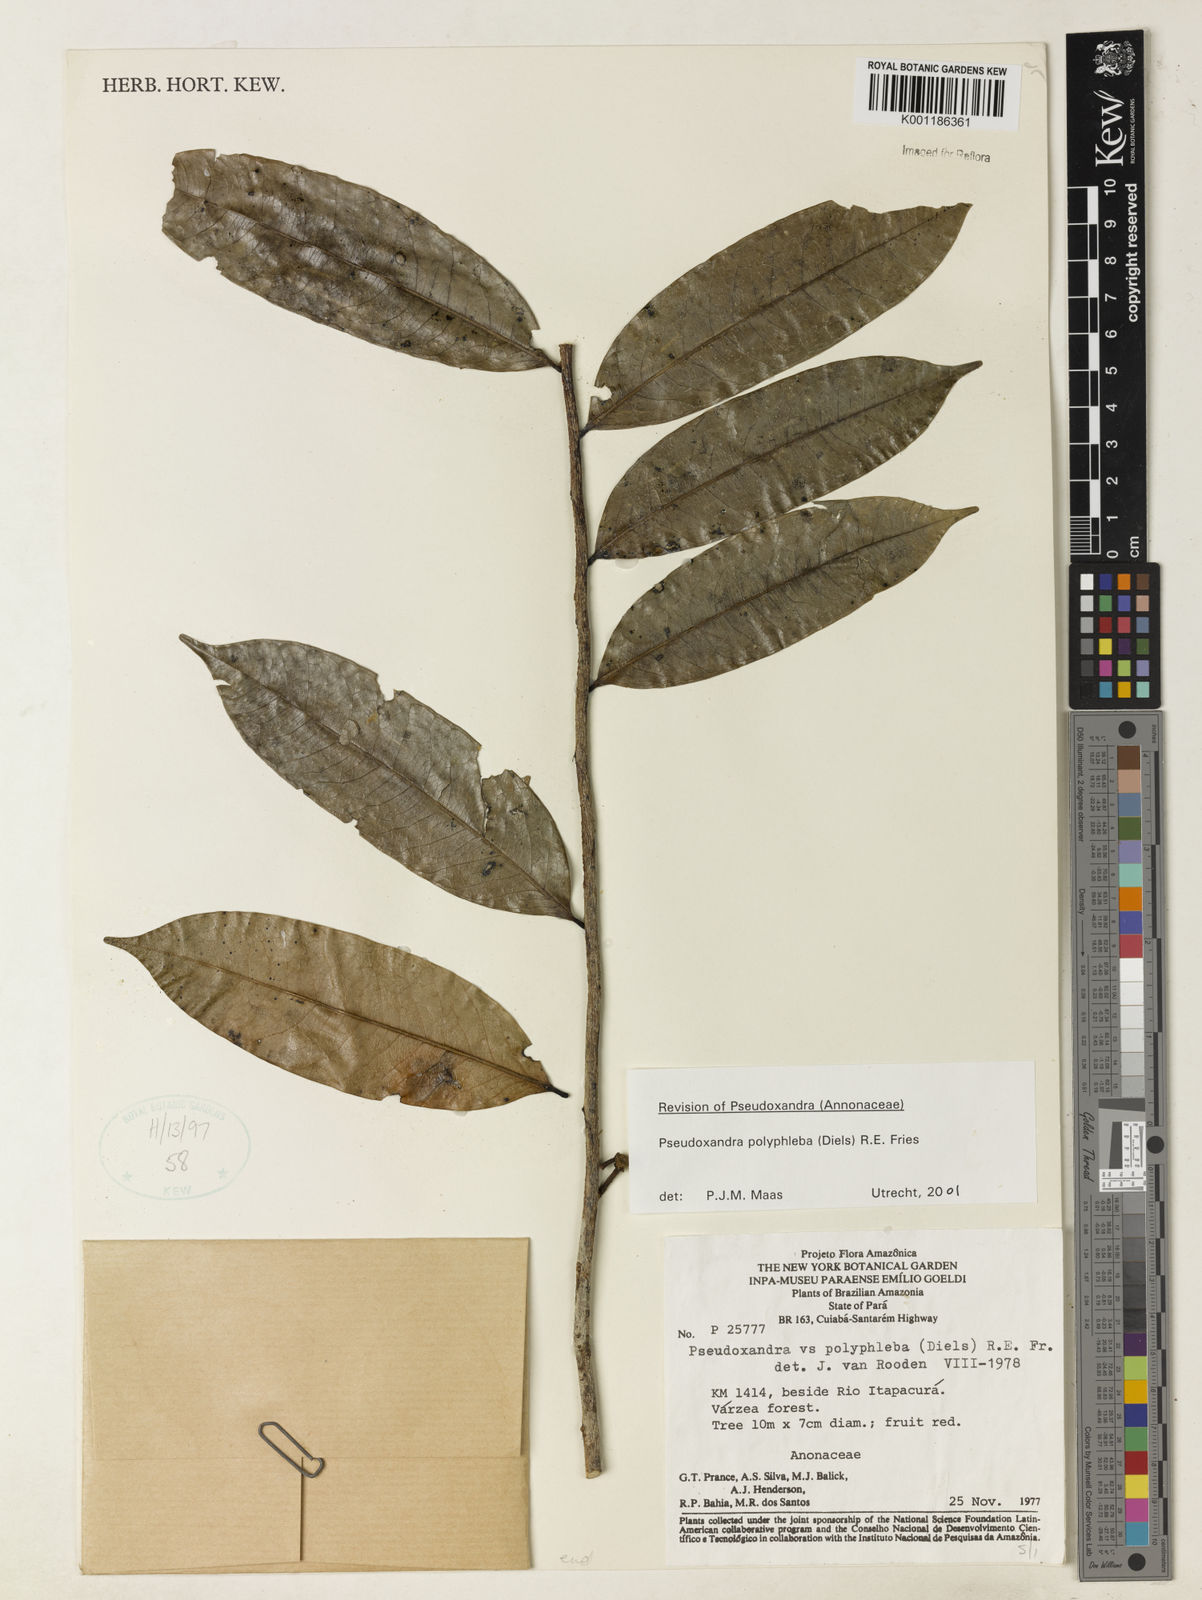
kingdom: Plantae
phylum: Tracheophyta
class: Magnoliopsida
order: Magnoliales
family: Annonaceae
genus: Pseudoxandra
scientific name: Pseudoxandra polyphleba
